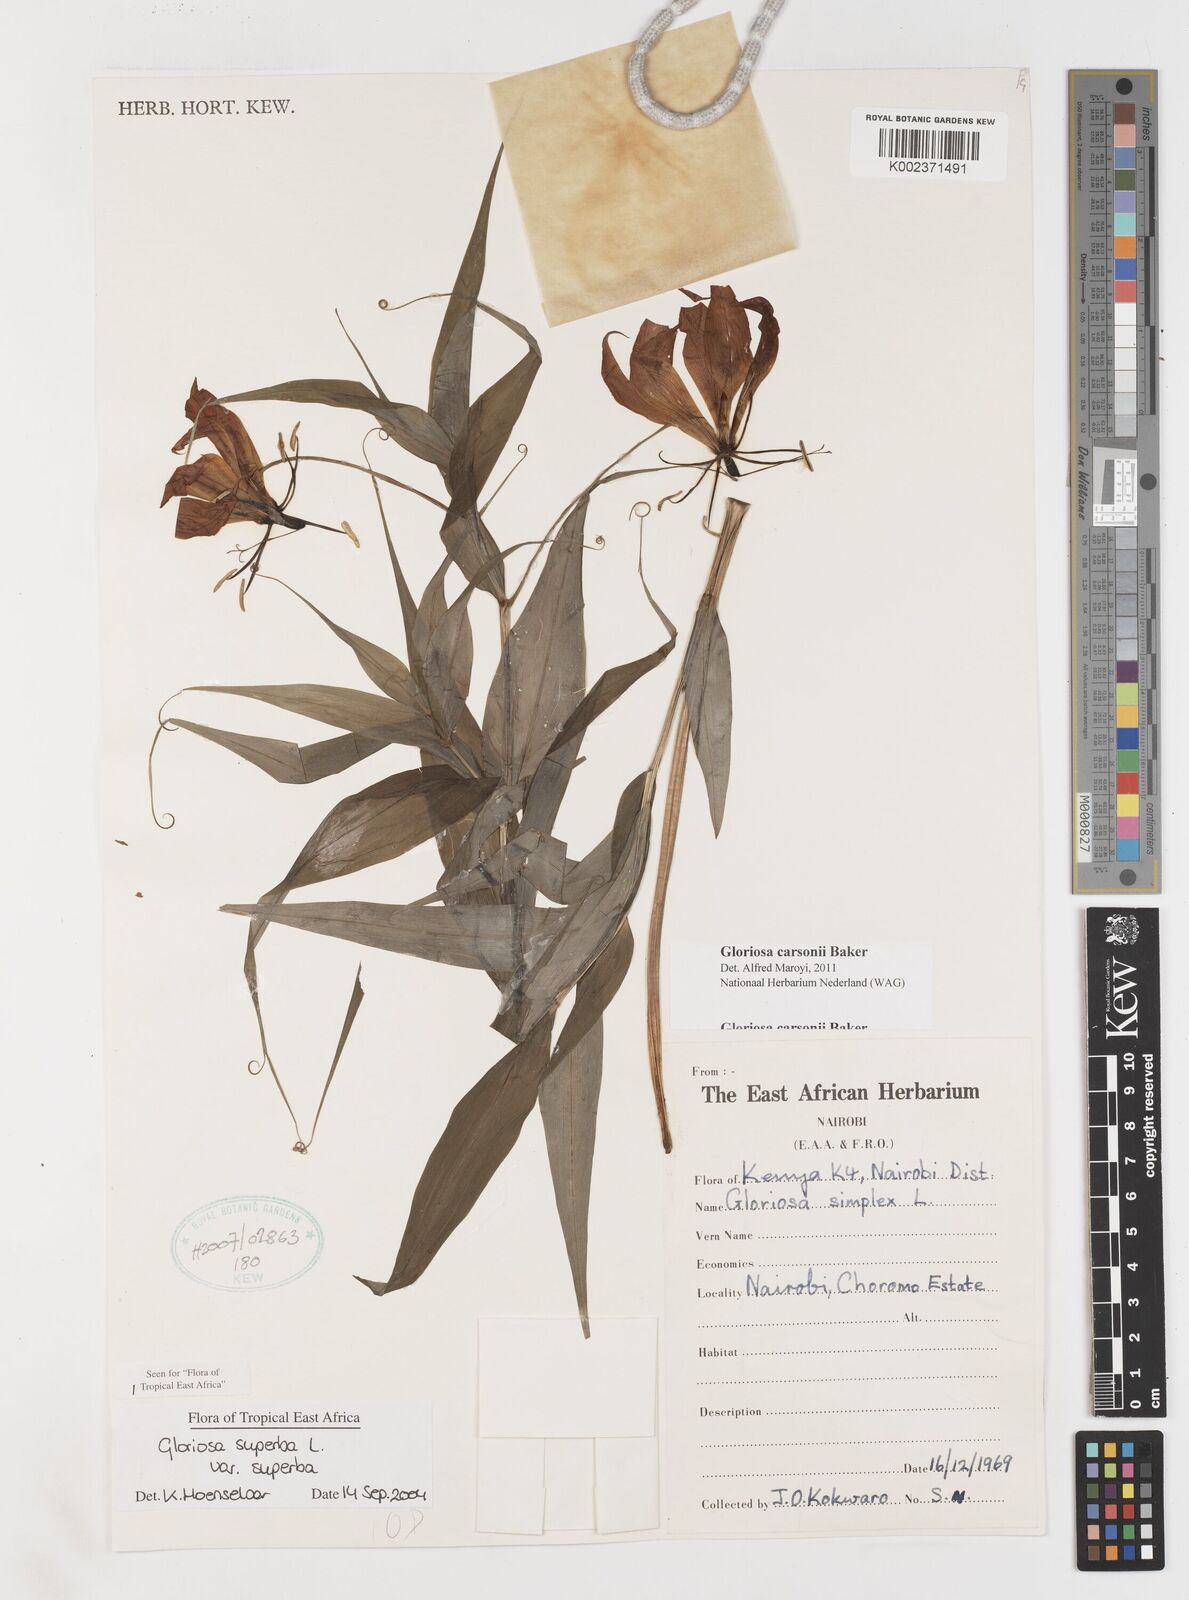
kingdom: Plantae
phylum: Tracheophyta
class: Liliopsida
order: Liliales
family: Colchicaceae
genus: Gloriosa
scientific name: Gloriosa carsonii
